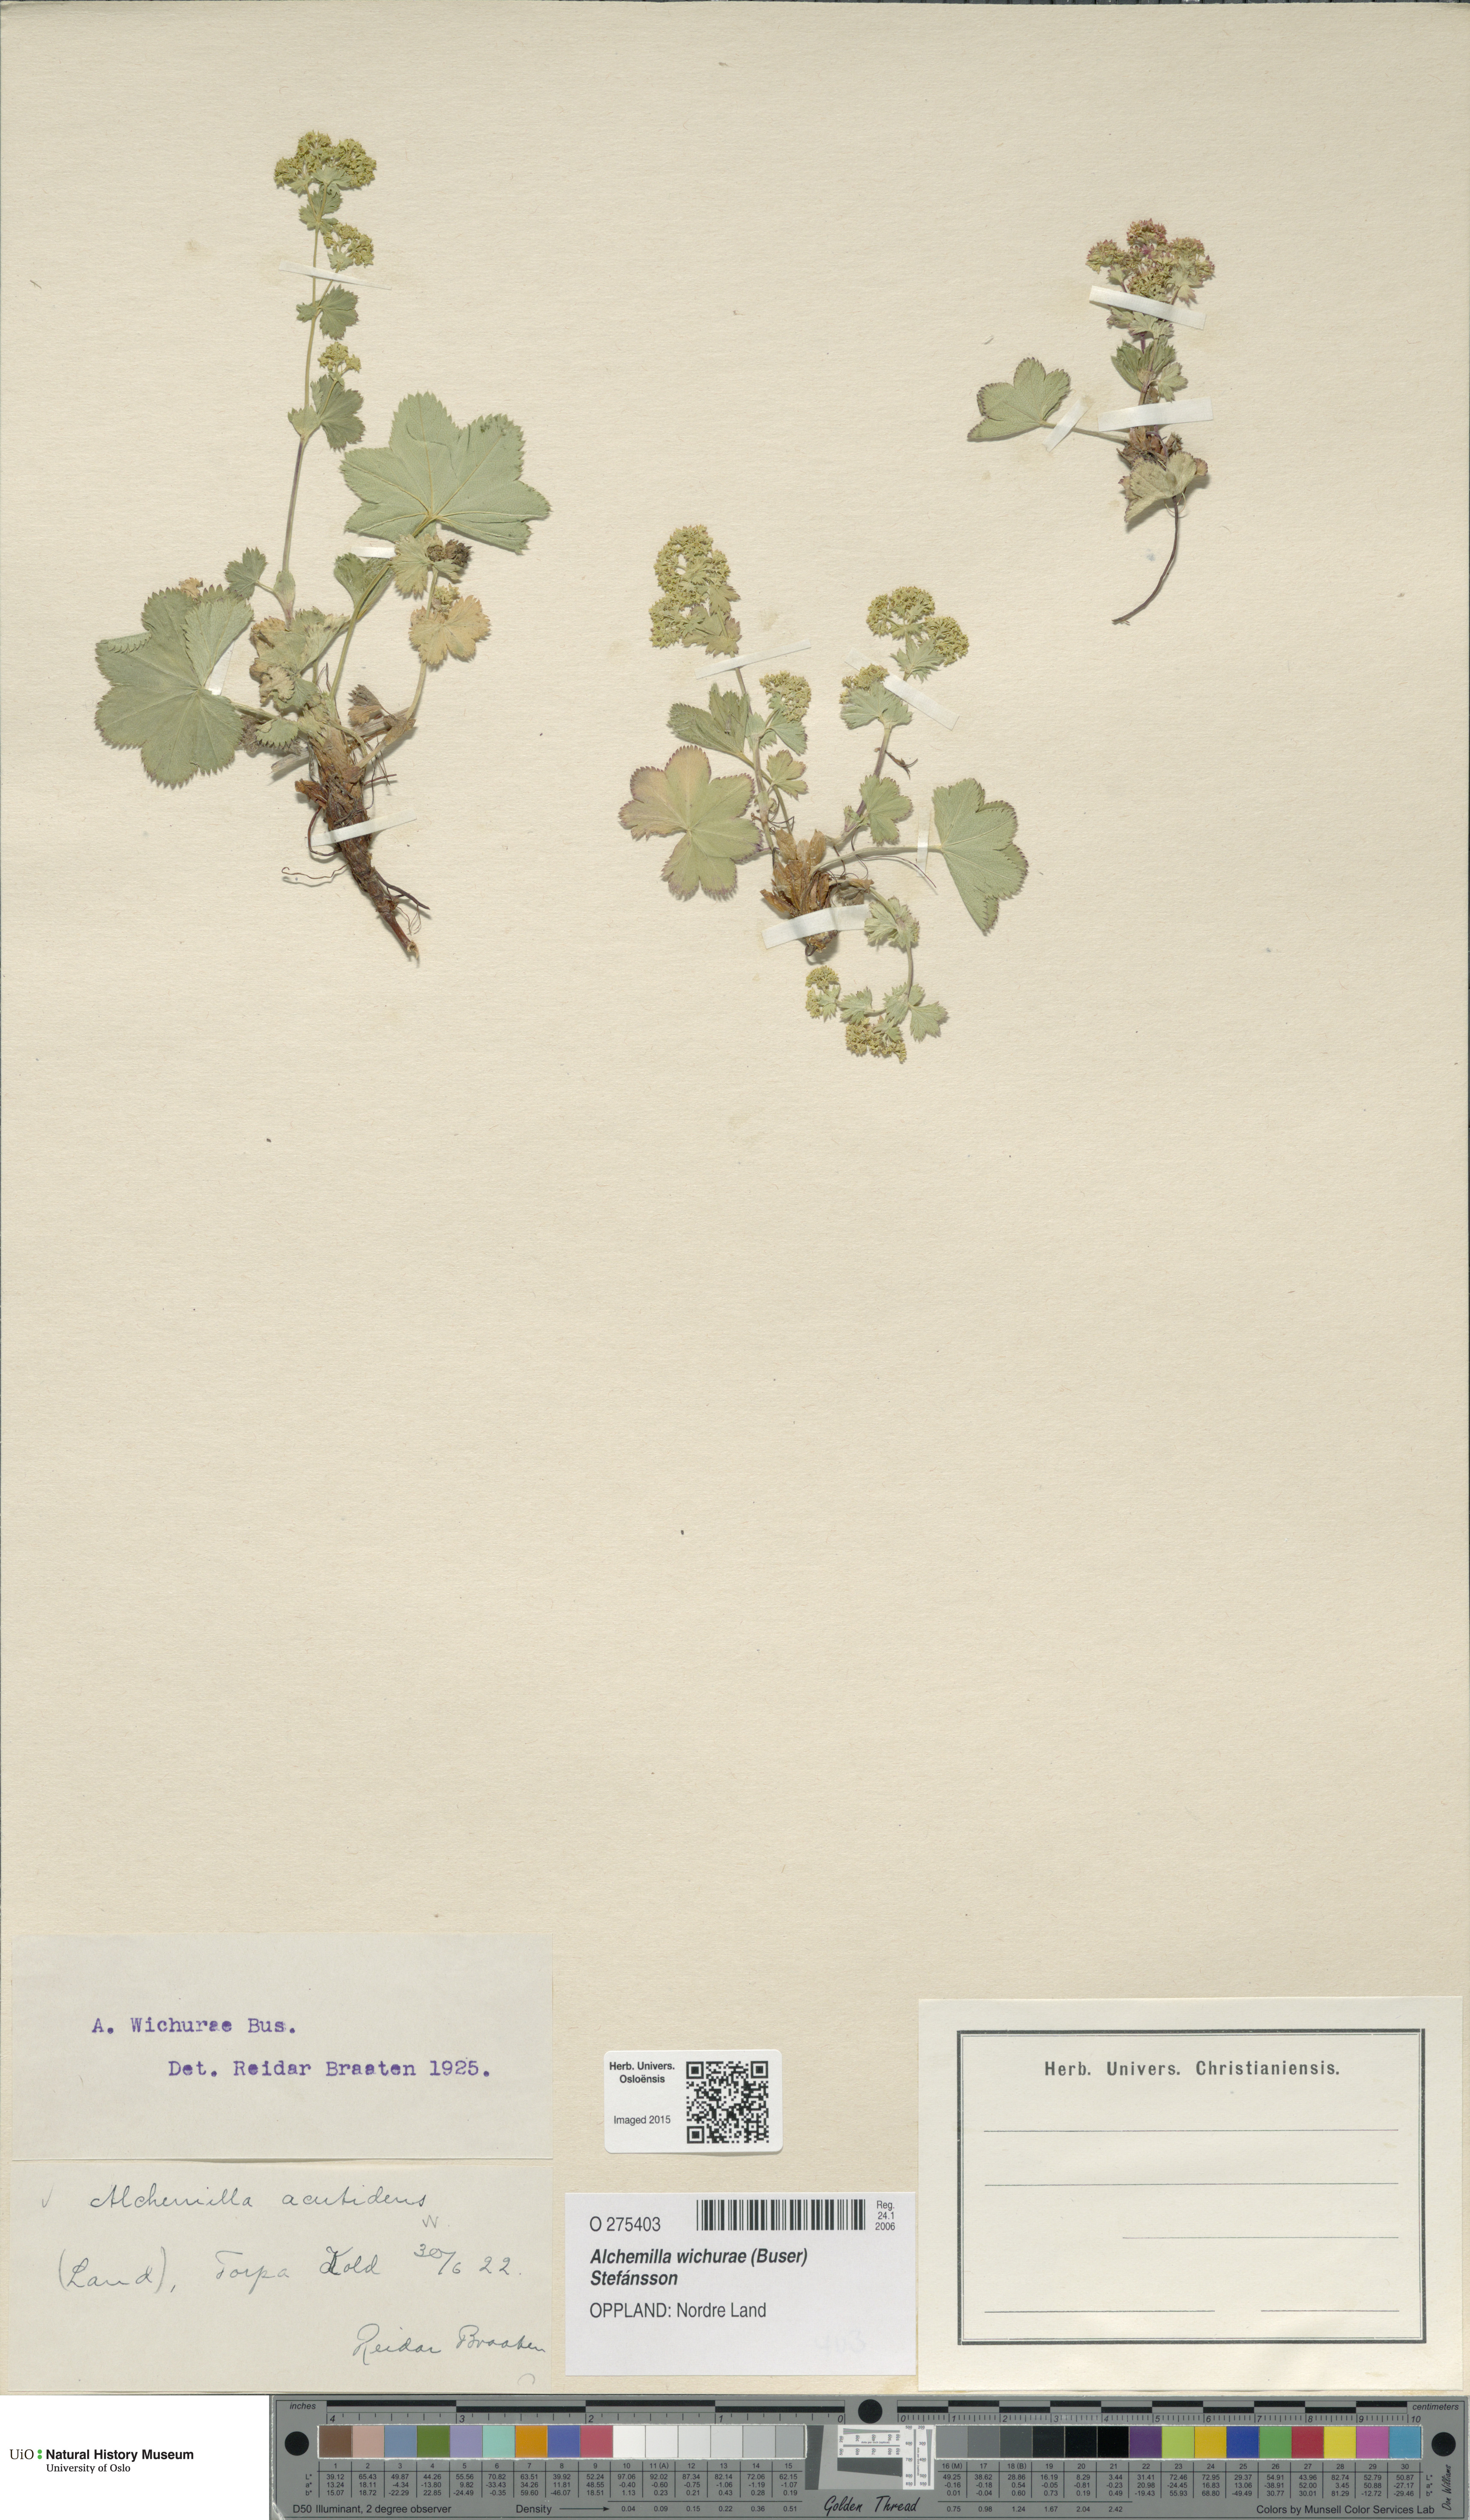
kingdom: Plantae
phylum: Tracheophyta
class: Magnoliopsida
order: Rosales
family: Rosaceae
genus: Alchemilla
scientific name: Alchemilla wichurae
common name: Rock lady's mantle
